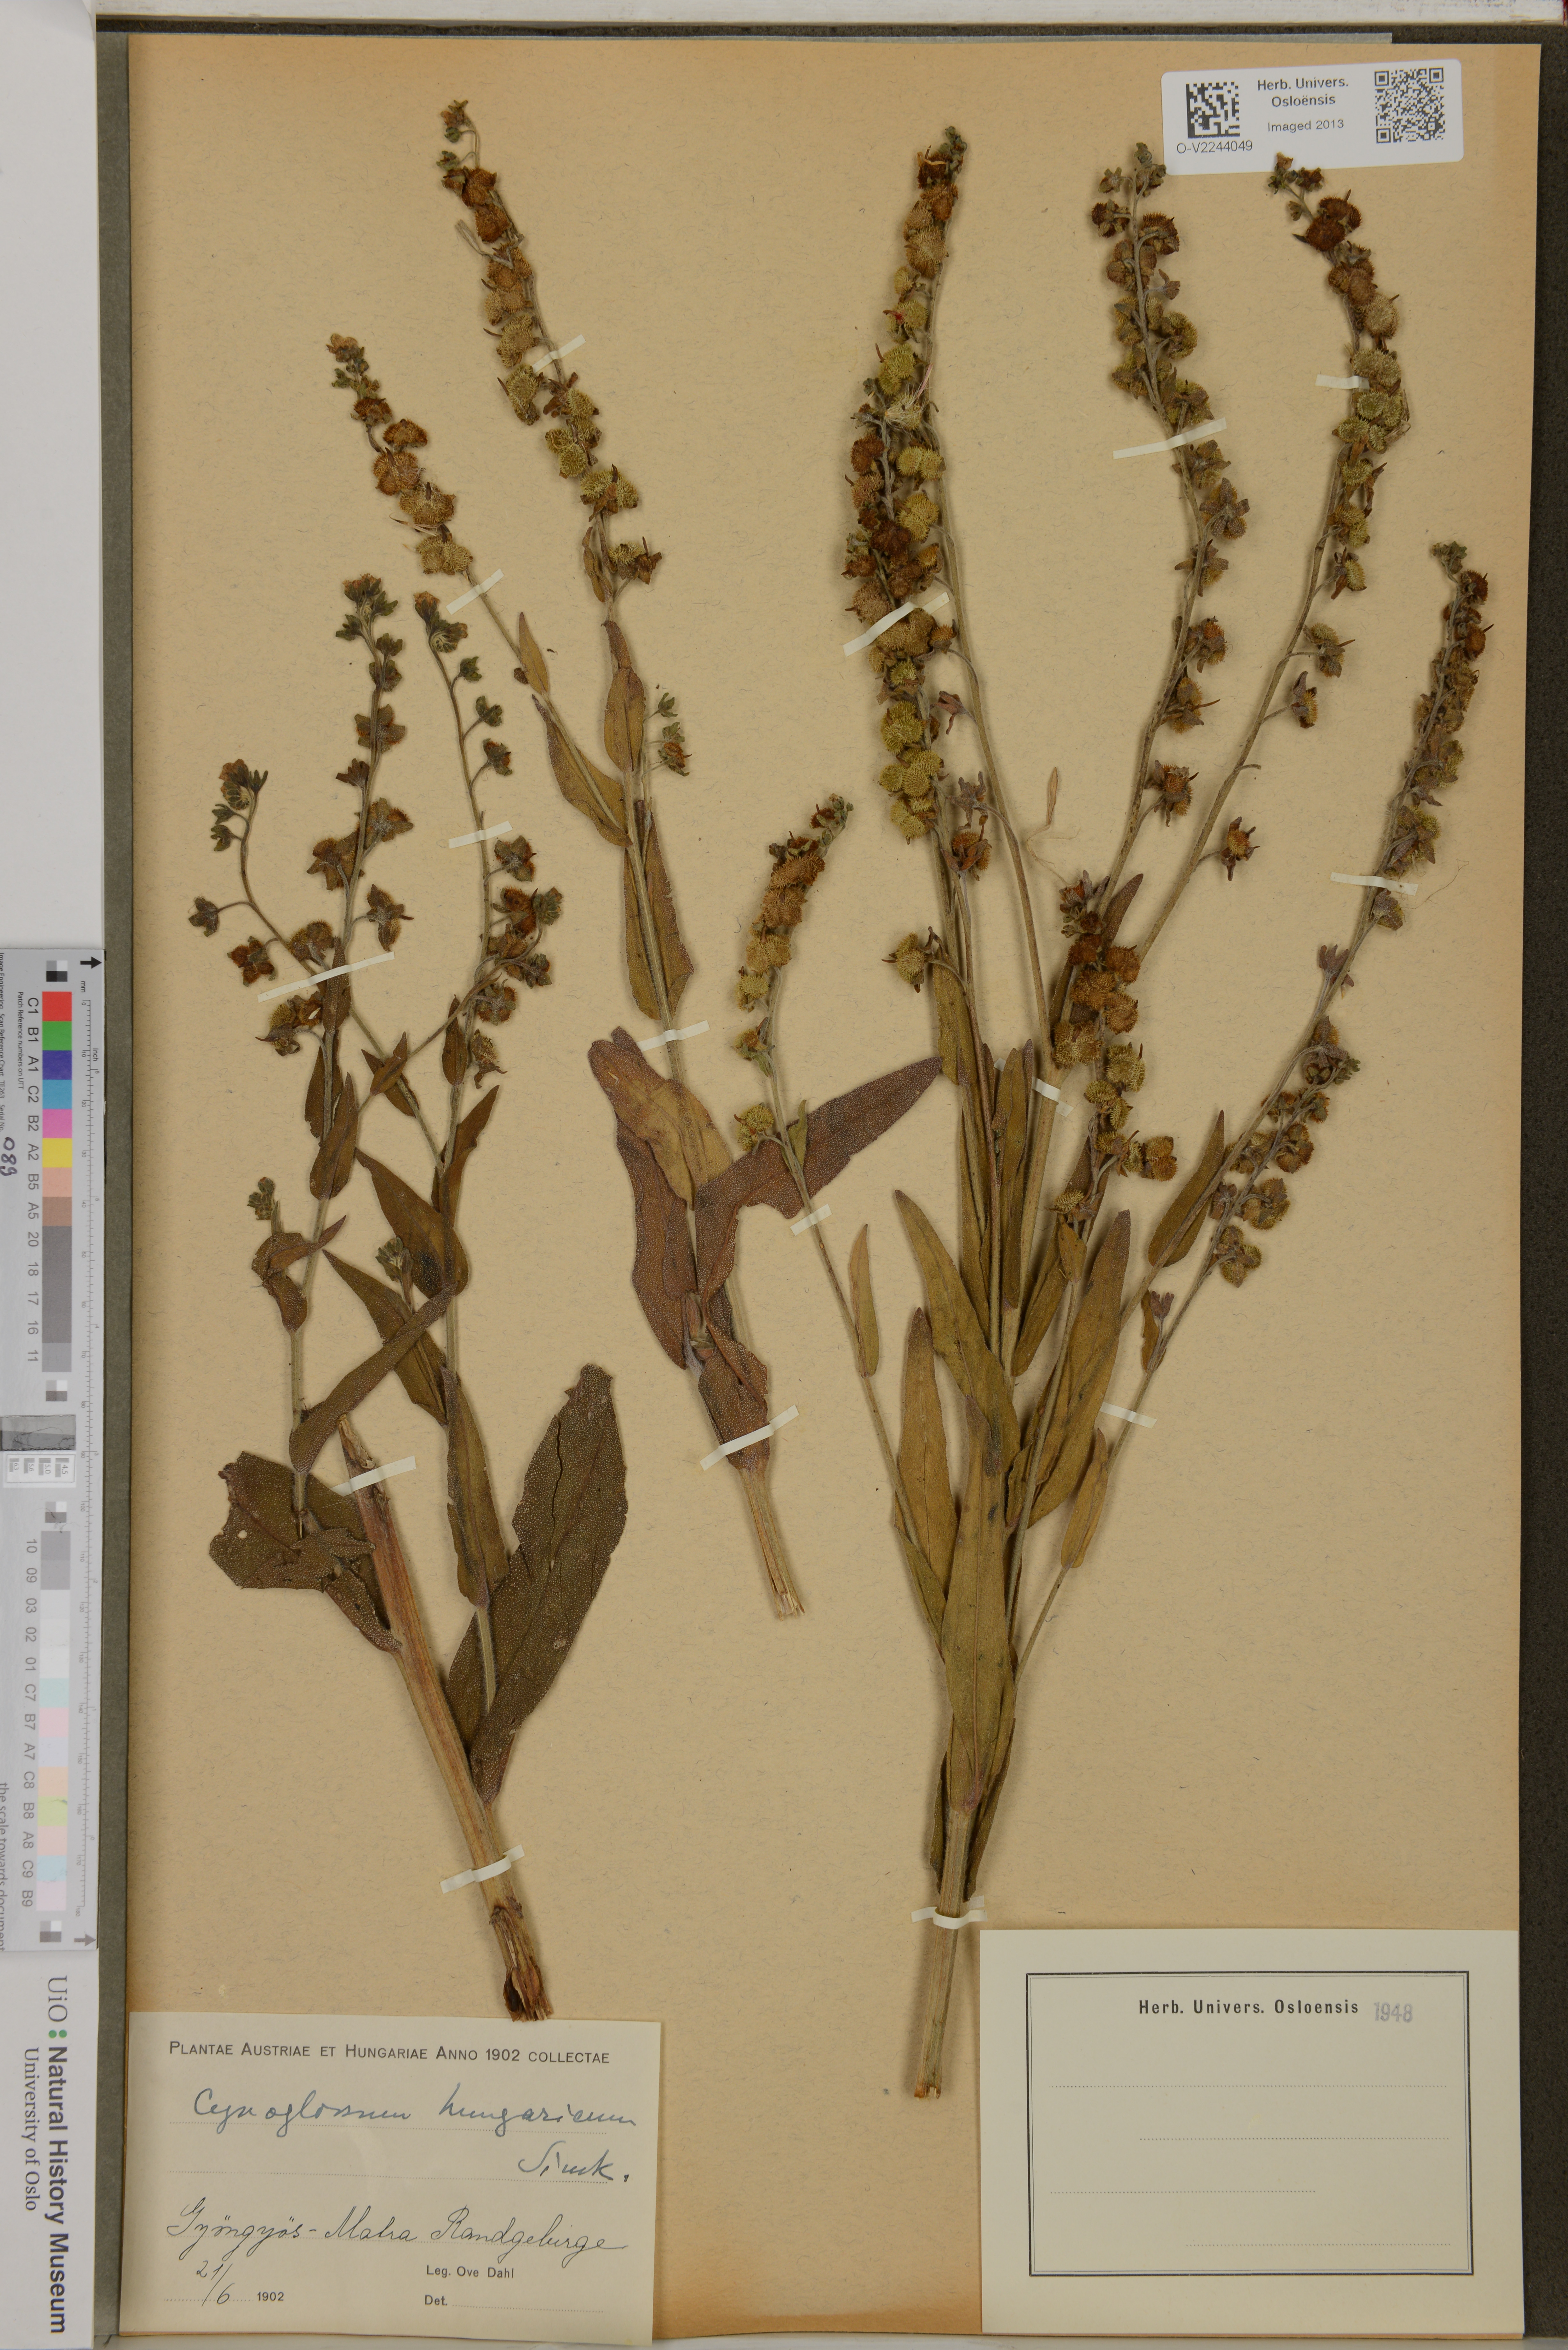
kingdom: Plantae
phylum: Tracheophyta
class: Magnoliopsida
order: Boraginales
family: Boraginaceae
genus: Cynoglossum
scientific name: Cynoglossum montanum
